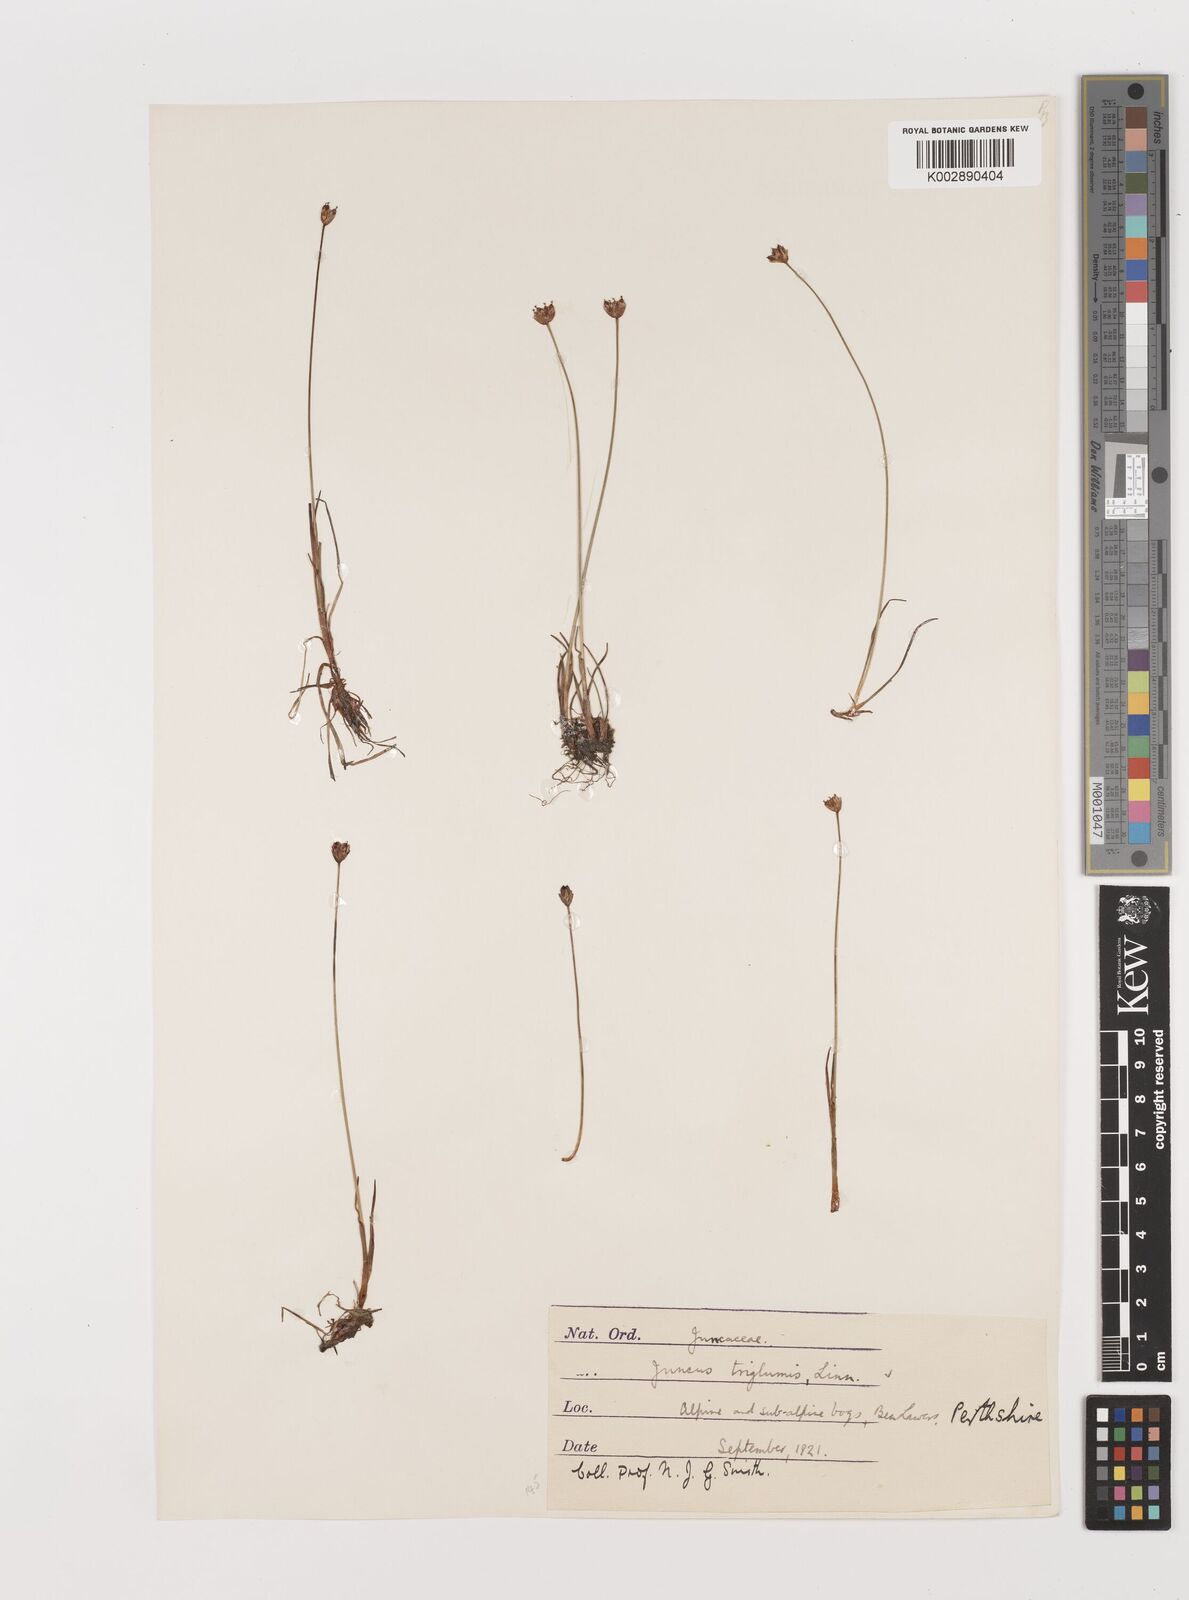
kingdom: Plantae
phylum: Tracheophyta
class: Liliopsida
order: Poales
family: Juncaceae
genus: Juncus
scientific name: Juncus triglumis
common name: Three-flowered rush
